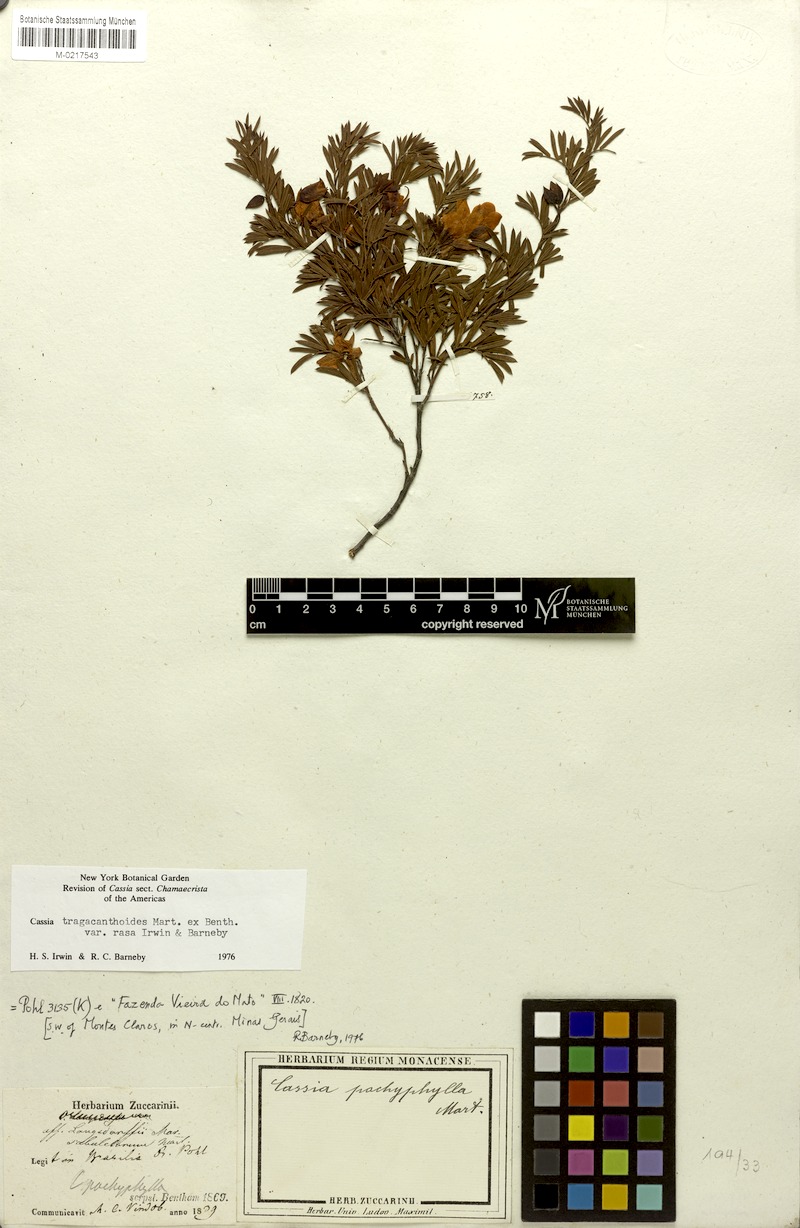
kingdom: Plantae
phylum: Tracheophyta
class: Magnoliopsida
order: Fabales
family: Fabaceae
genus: Chamaecrista
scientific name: Chamaecrista tragacanthoides
